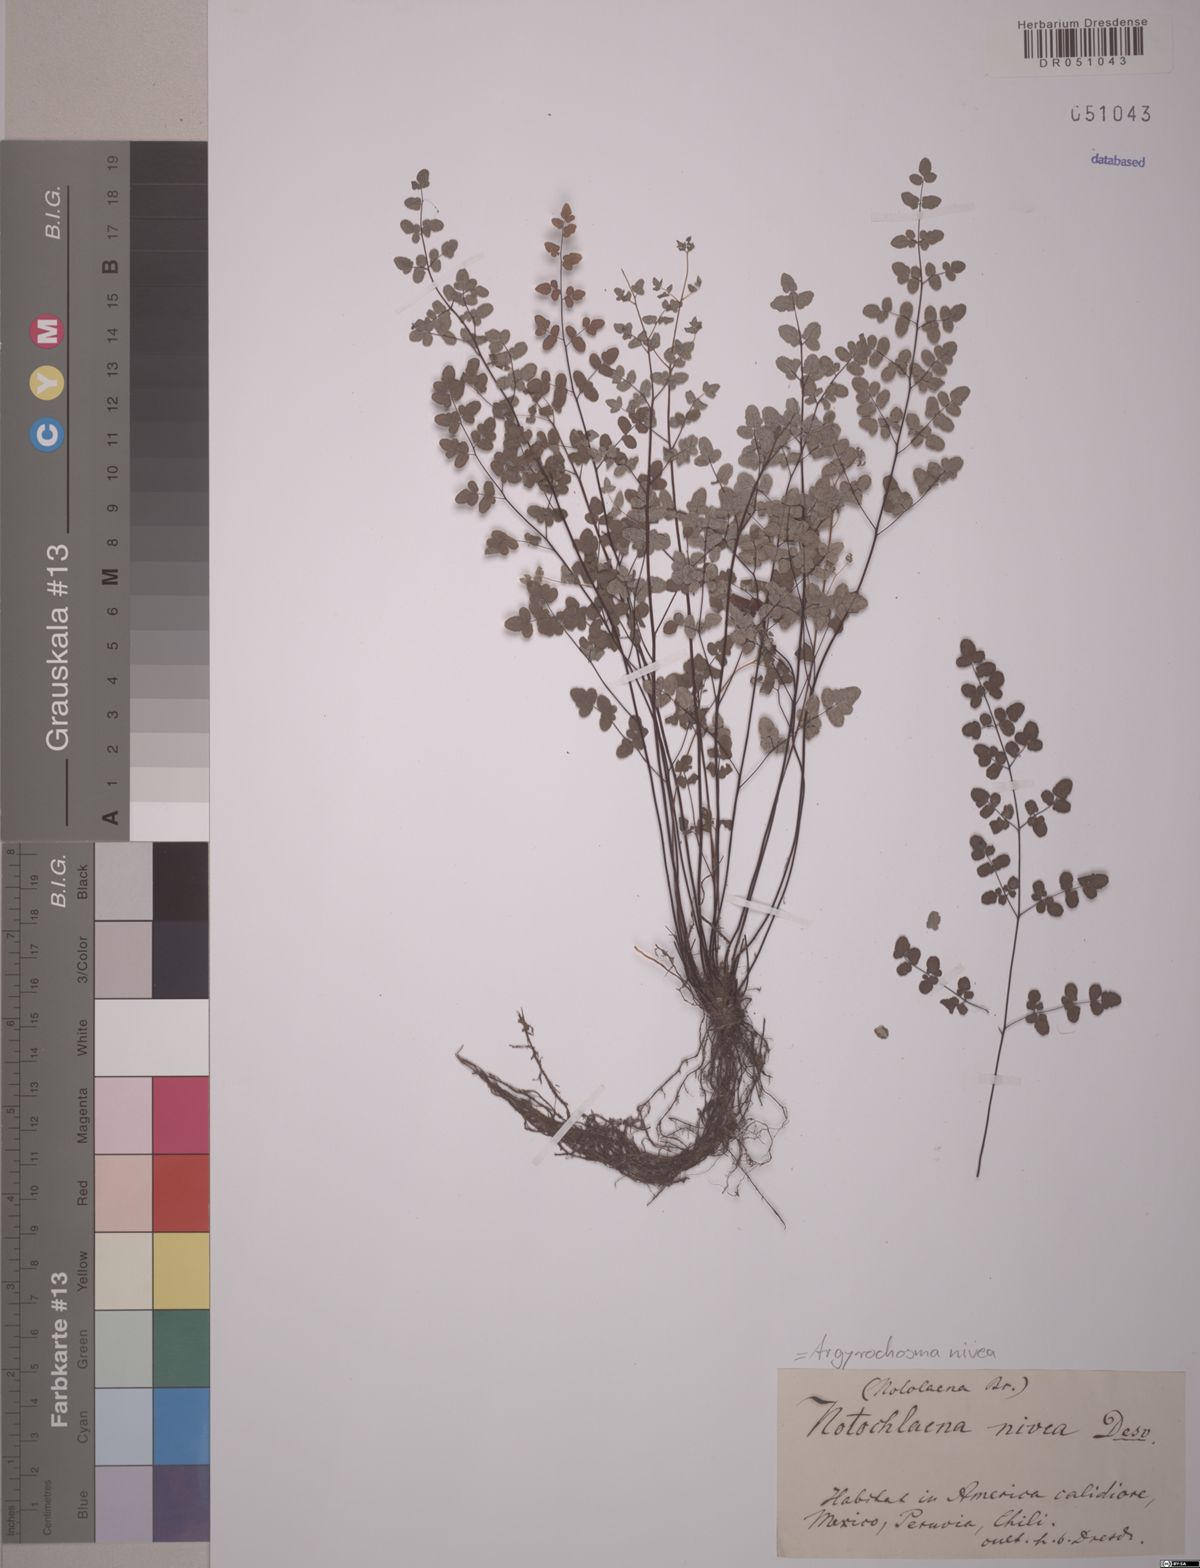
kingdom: Plantae
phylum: Tracheophyta
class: Polypodiopsida
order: Polypodiales
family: Pteridaceae
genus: Argyrochosma
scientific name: Argyrochosma nivea
